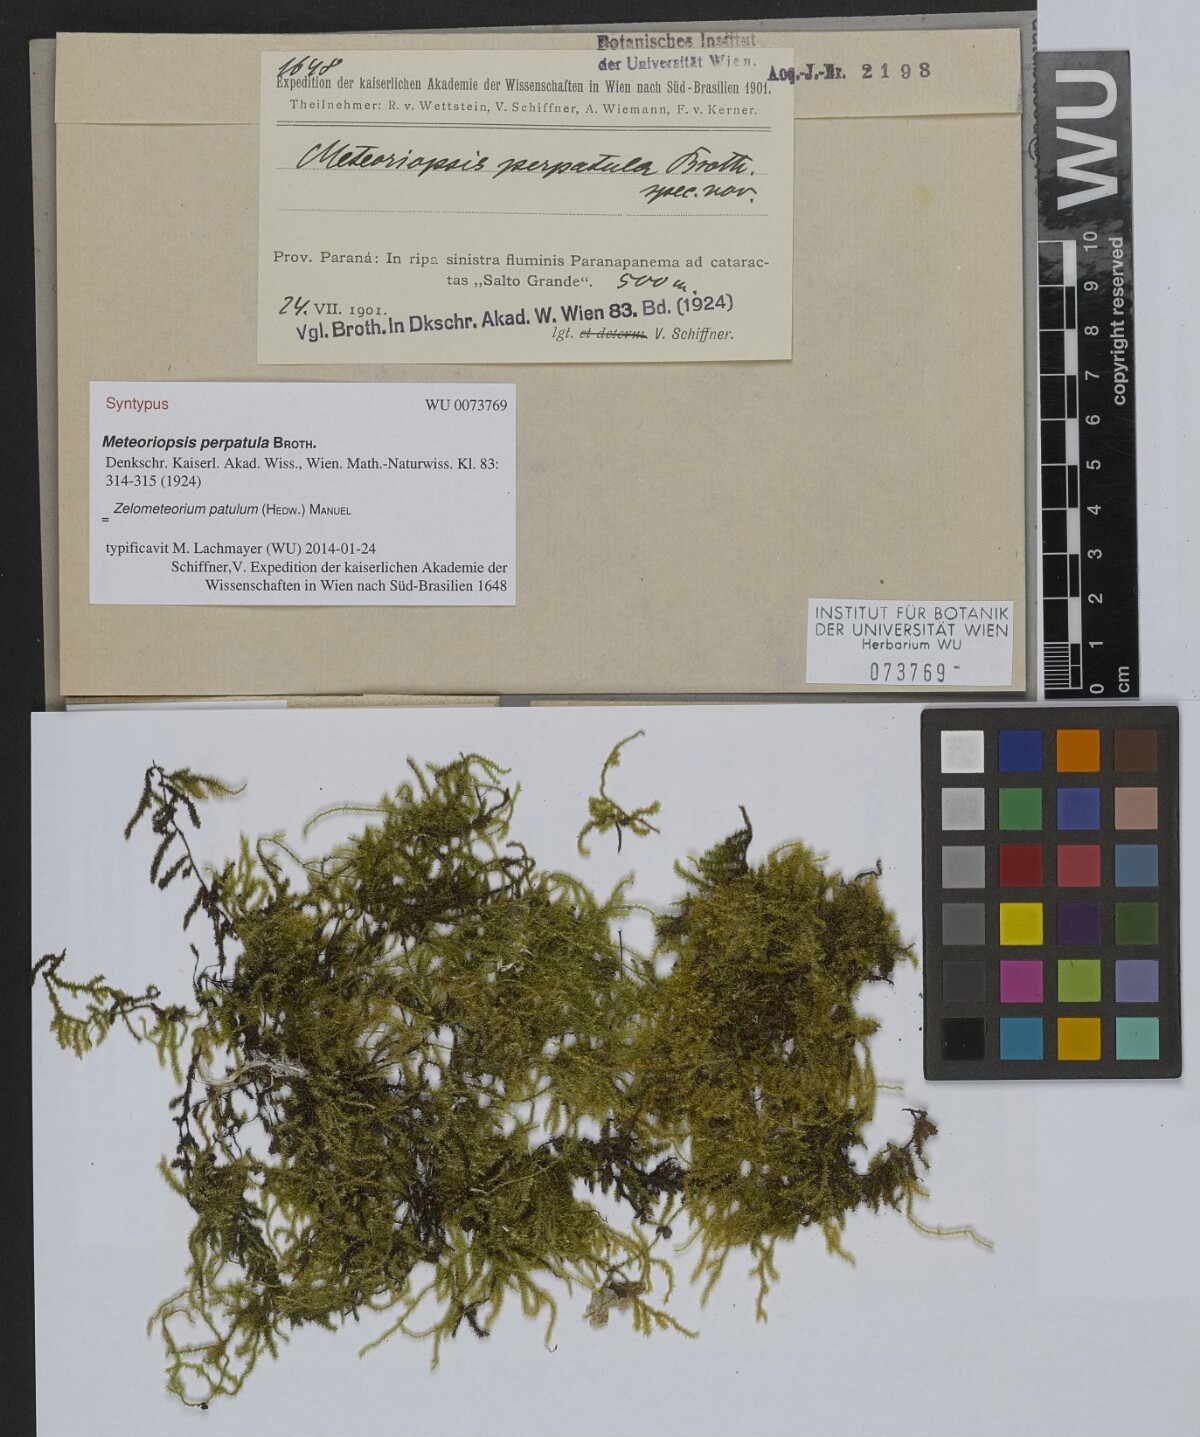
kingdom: Plantae
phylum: Bryophyta
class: Bryopsida
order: Hypnales
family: Brachytheciaceae
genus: Zelometeorium
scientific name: Zelometeorium patulum
